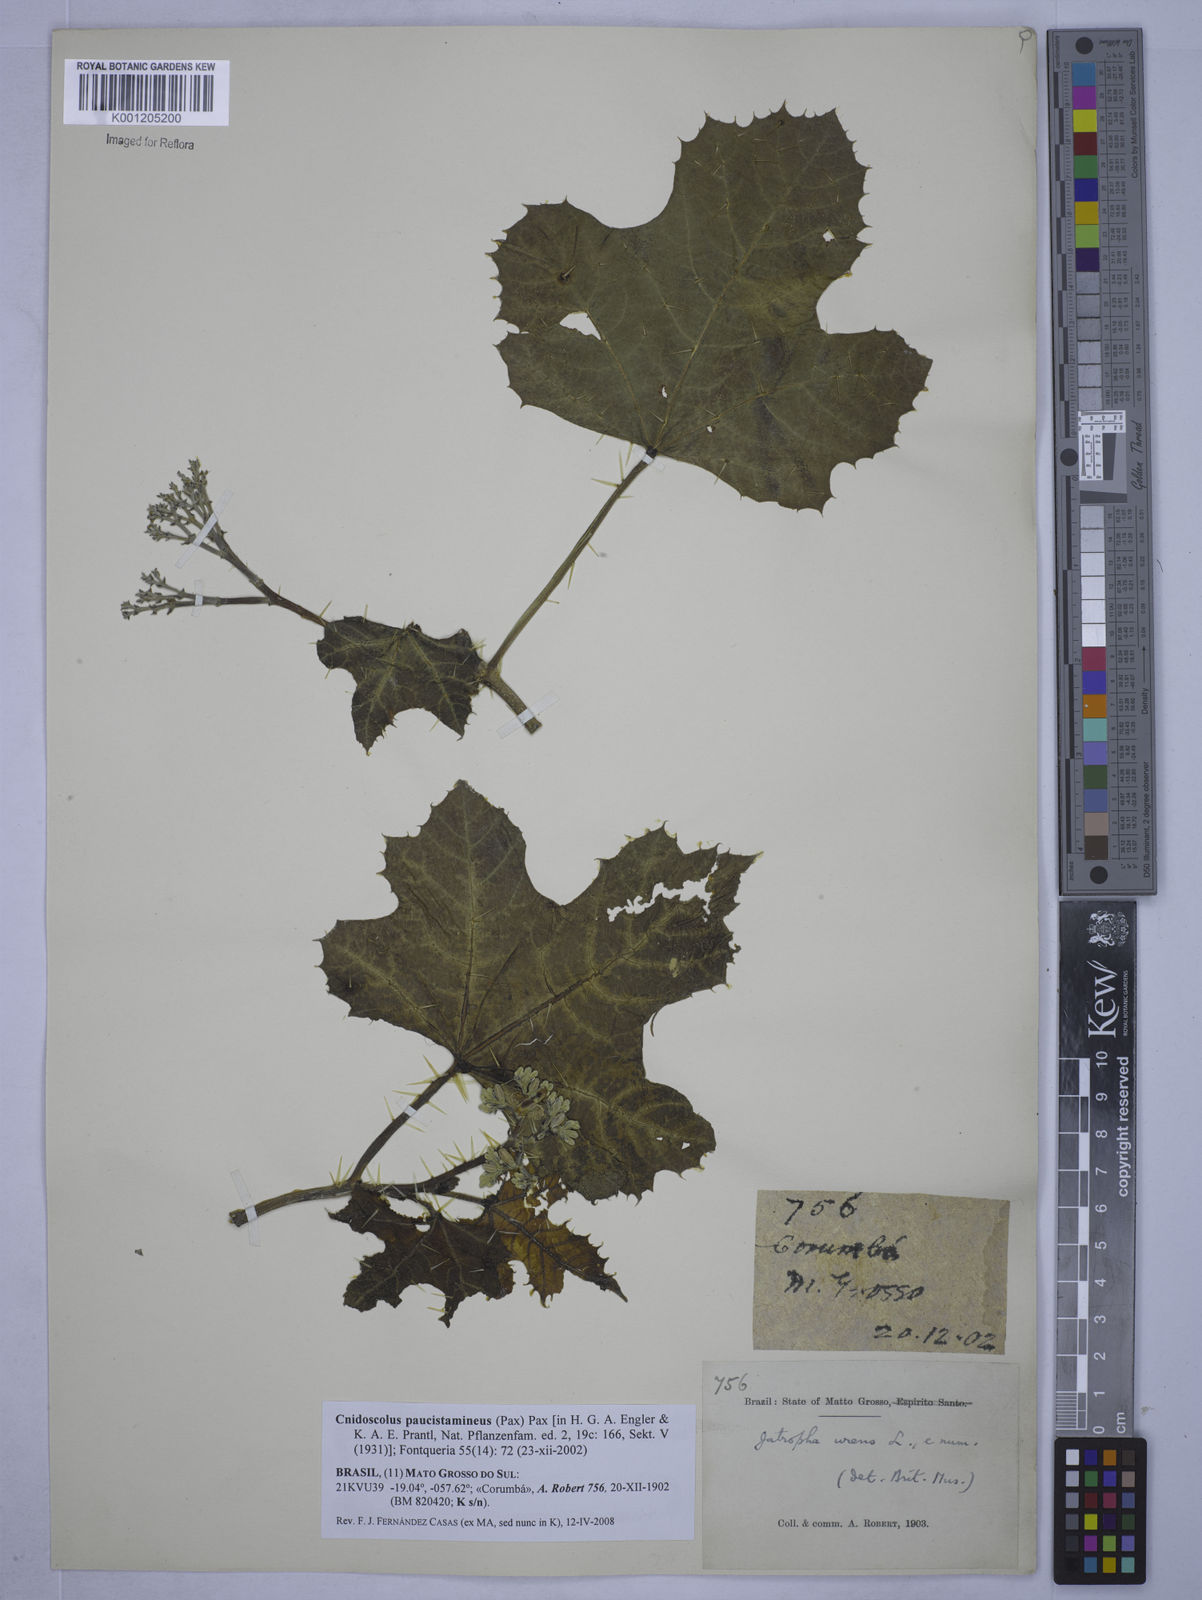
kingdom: Plantae
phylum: Tracheophyta
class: Magnoliopsida
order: Malpighiales
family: Euphorbiaceae
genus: Cnidoscolus
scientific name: Cnidoscolus paucistamineus
